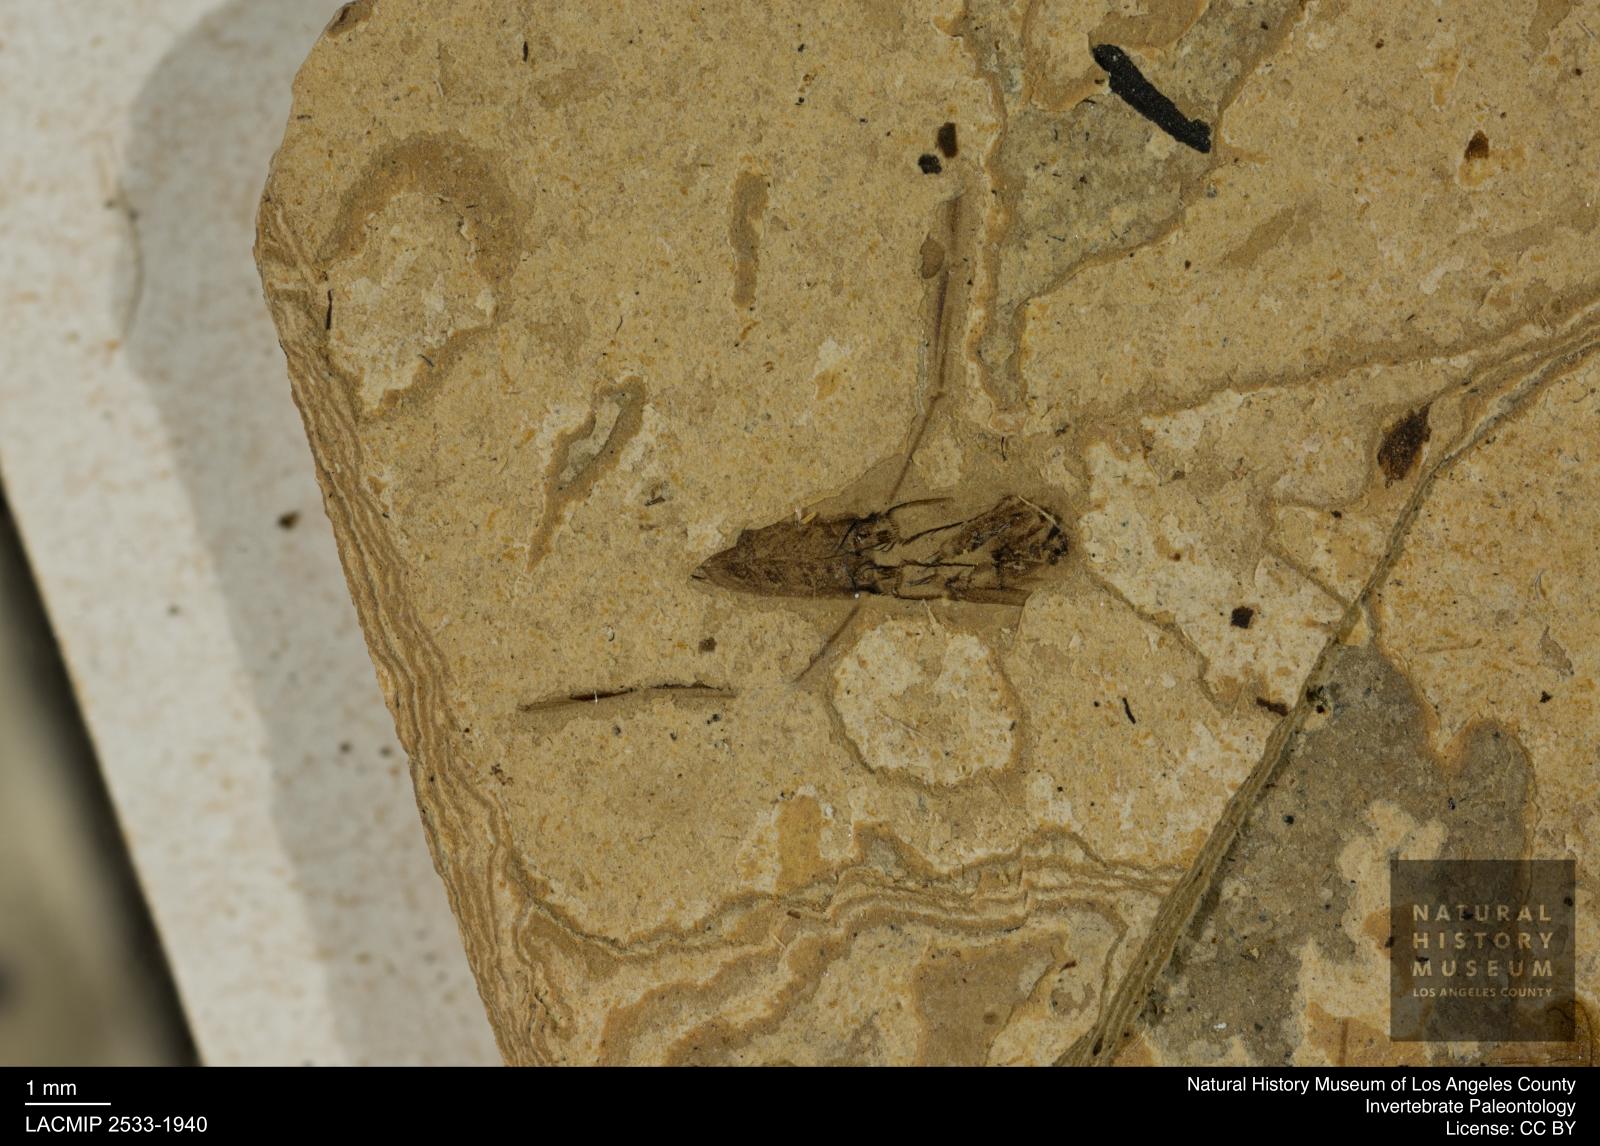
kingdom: Animalia
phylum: Arthropoda
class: Insecta
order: Hemiptera
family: Notonectidae
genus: Notonecta
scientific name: Notonecta
